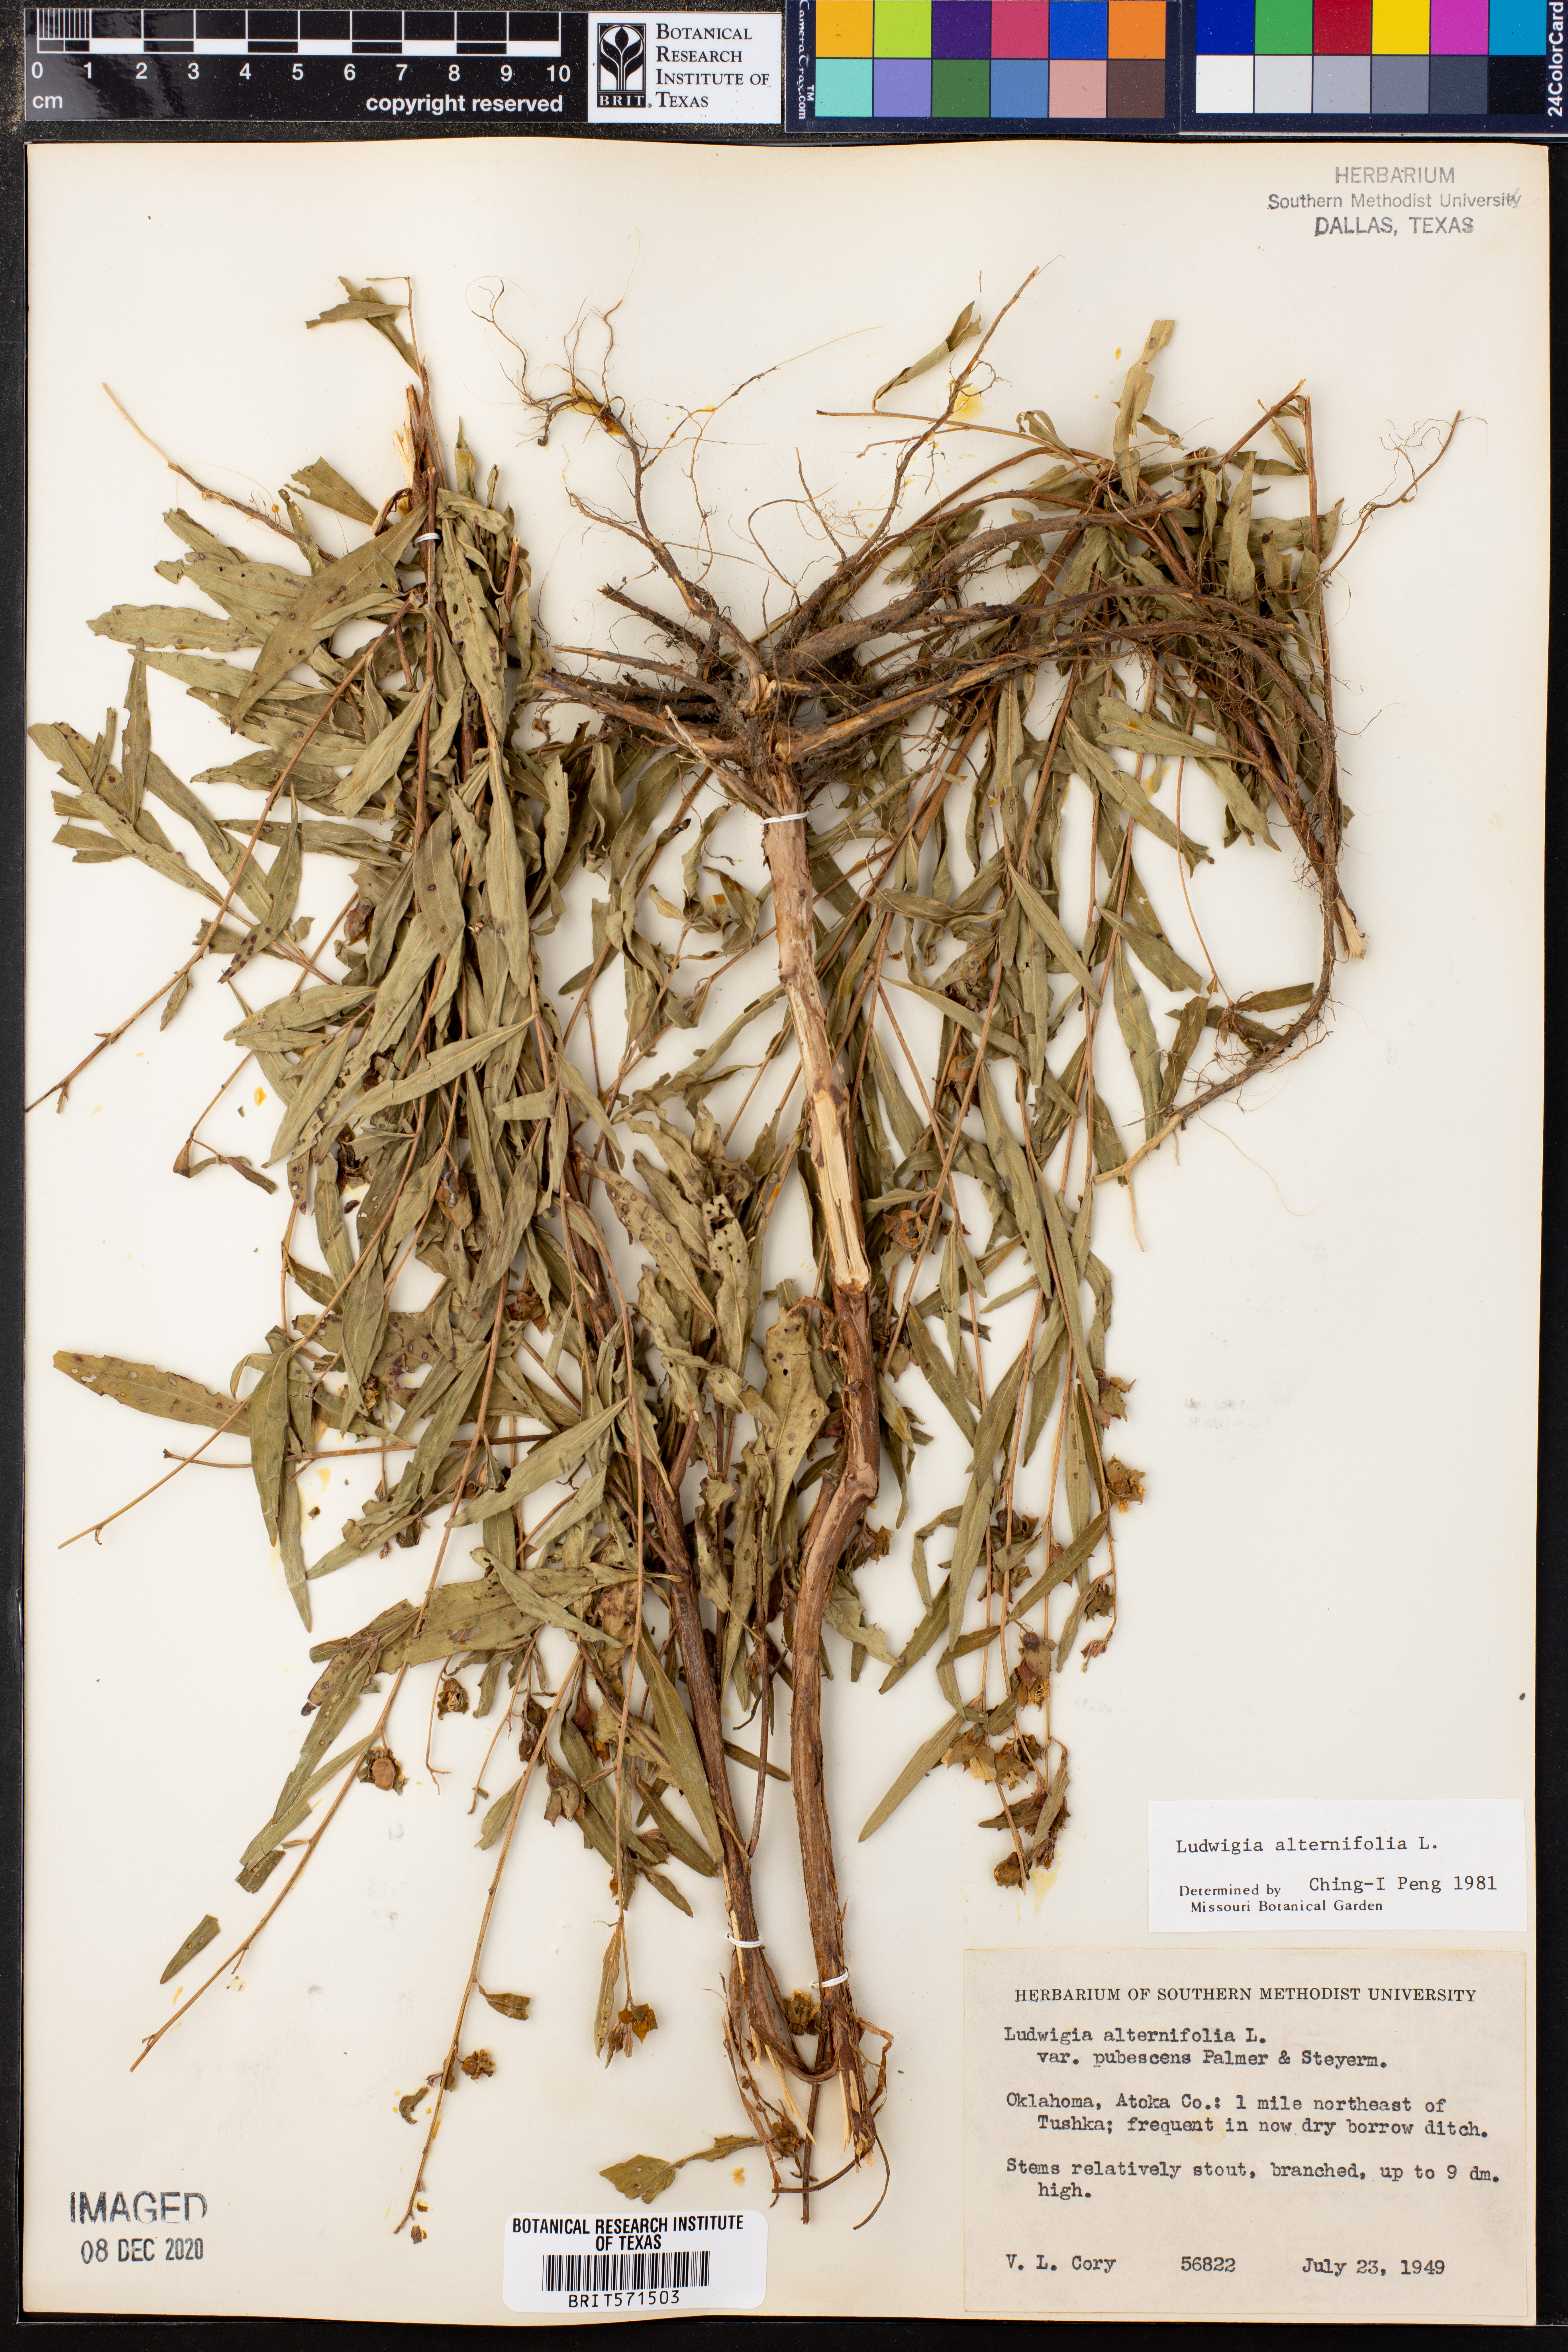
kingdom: Plantae
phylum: Tracheophyta
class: Magnoliopsida
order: Myrtales
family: Onagraceae
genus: Ludwigia
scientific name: Ludwigia alternifolia
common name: Rattlebox
